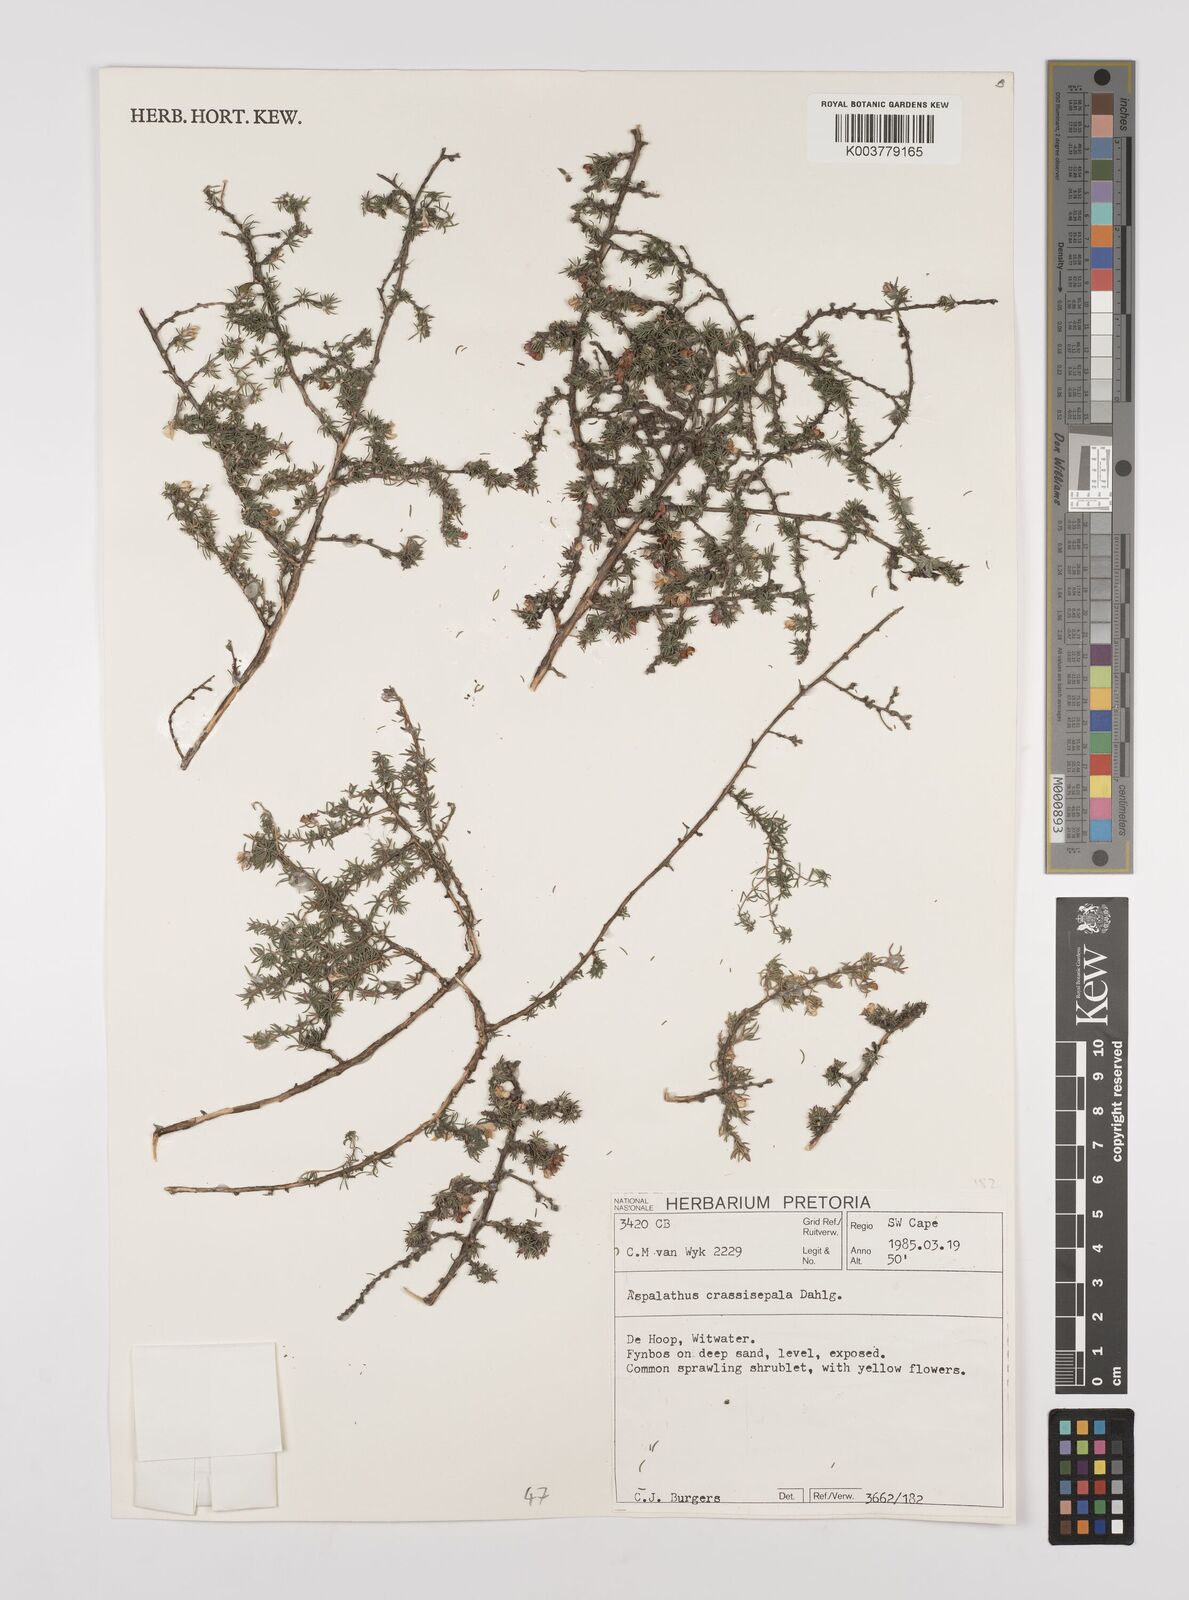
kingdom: Plantae
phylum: Tracheophyta
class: Magnoliopsida
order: Fabales
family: Fabaceae
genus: Aspalathus
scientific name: Aspalathus crassisepala
